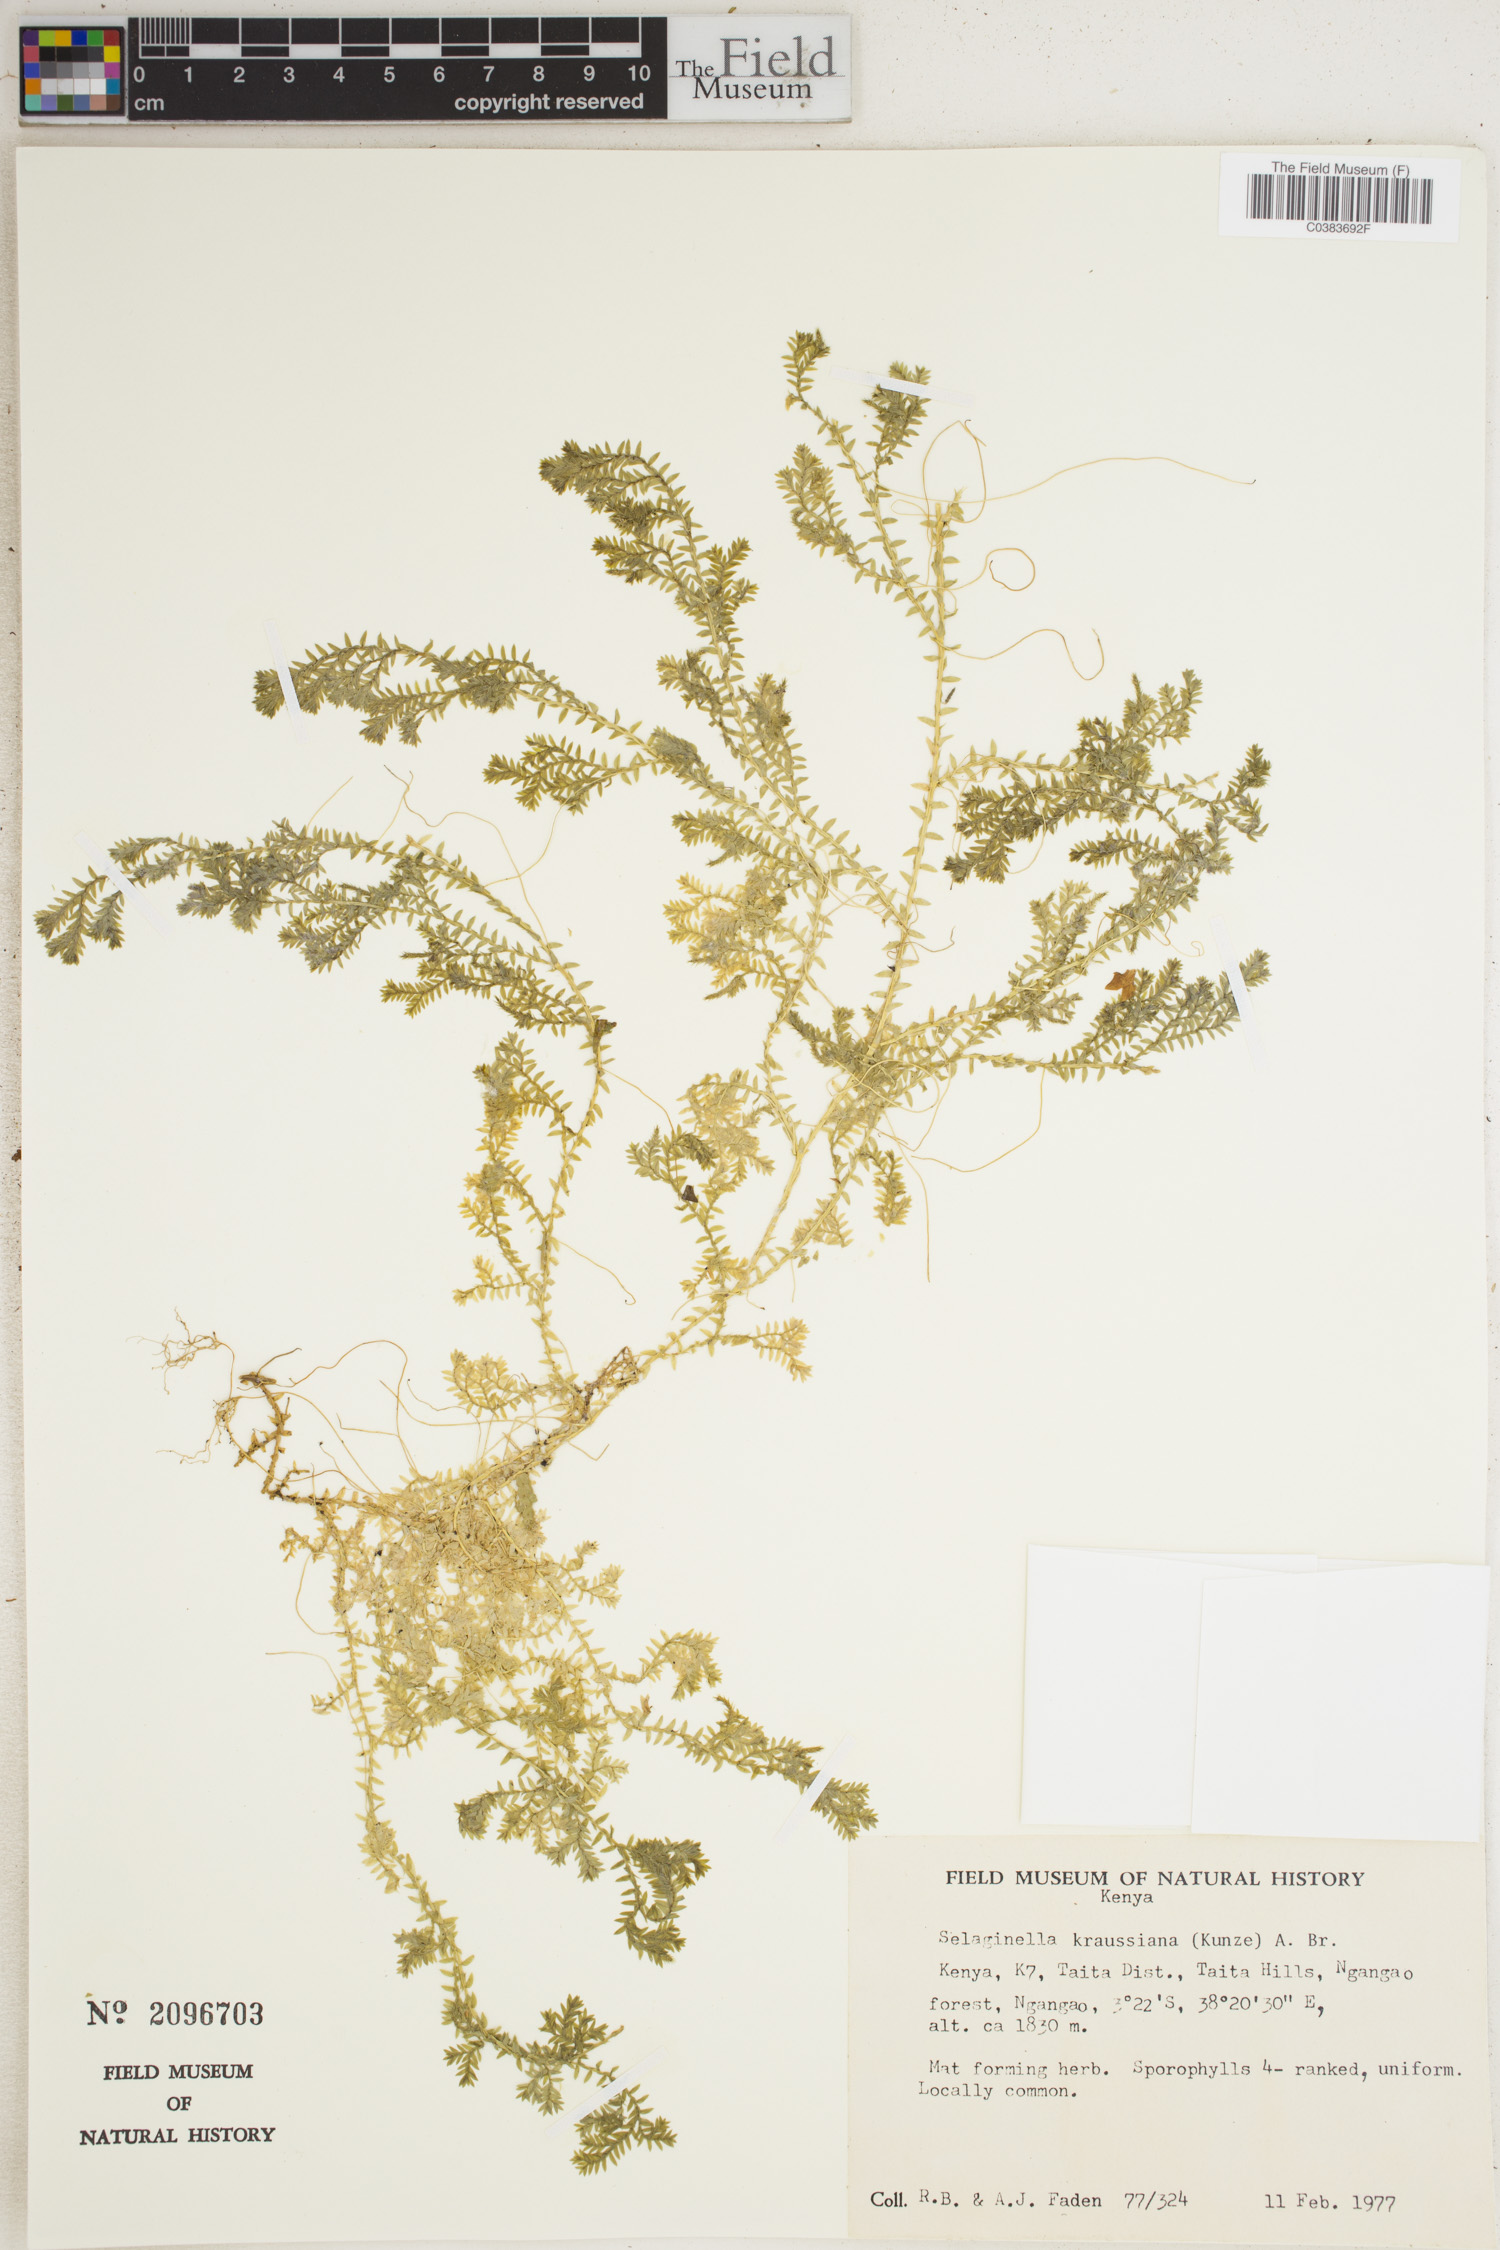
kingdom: Plantae
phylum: Tracheophyta
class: Lycopodiopsida
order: Selaginellales
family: Selaginellaceae
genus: Selaginella
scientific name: Selaginella kraussiana
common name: Krauss' spikemoss
